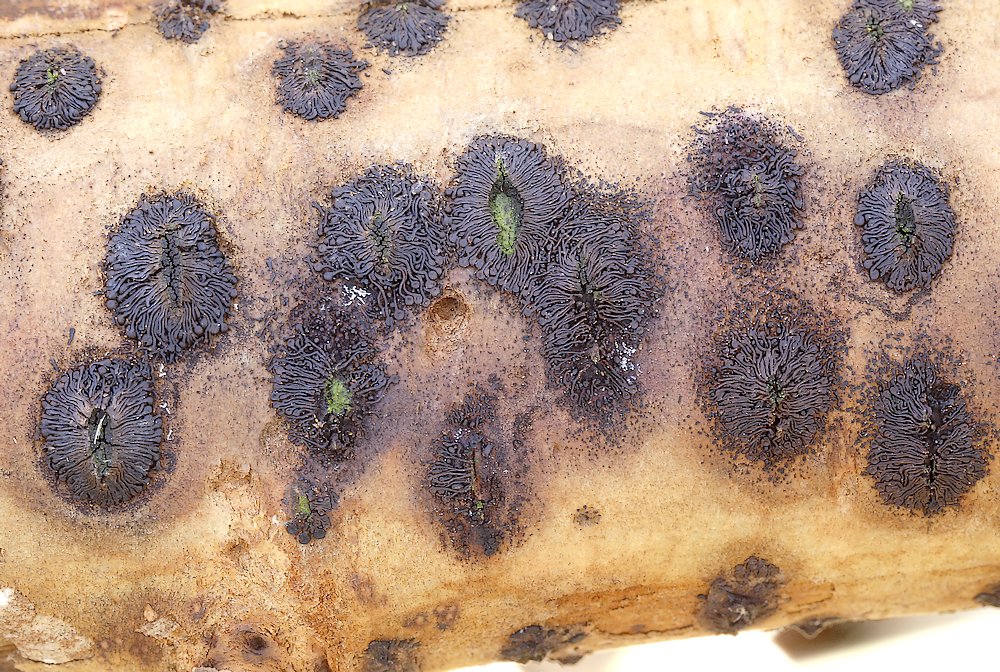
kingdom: Fungi
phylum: Ascomycota
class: Sordariomycetes
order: Calosphaeriales
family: Calosphaeriaceae
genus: Calosphaeria
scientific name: Calosphaeria pulchella
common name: smuk slyngkerne
